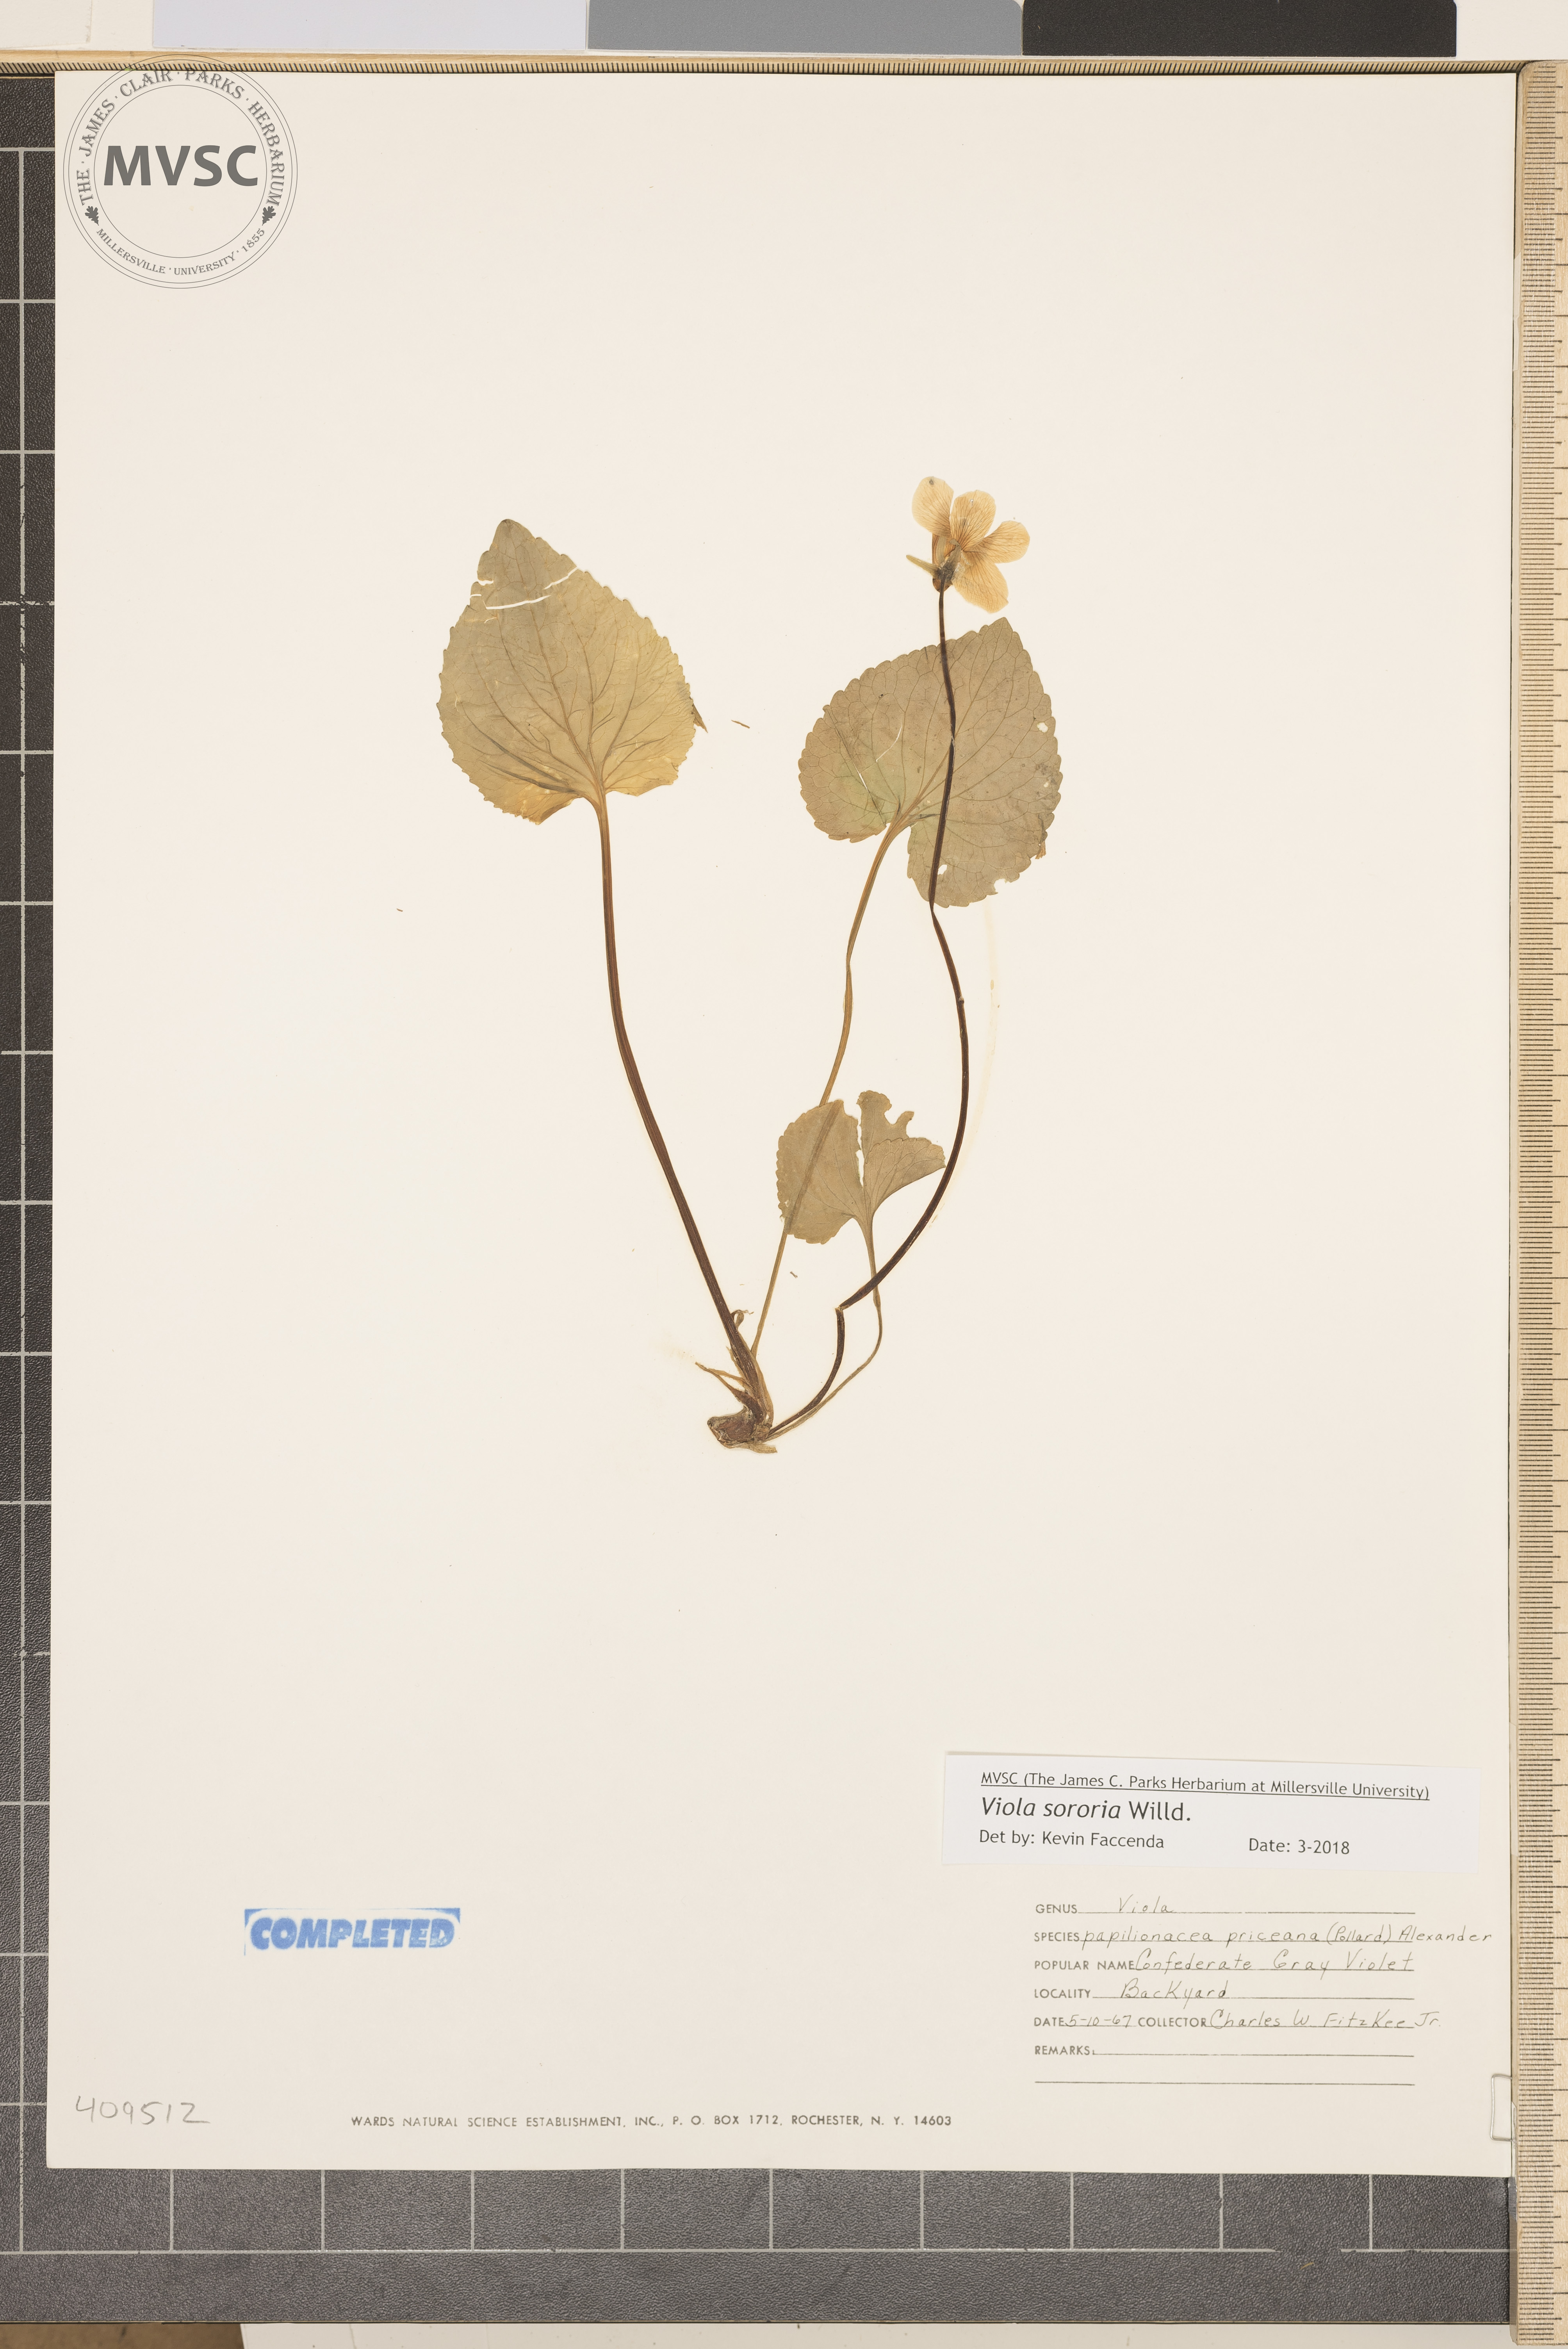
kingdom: Plantae
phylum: Tracheophyta
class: Magnoliopsida
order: Malpighiales
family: Violaceae
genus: Viola
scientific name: Viola sororia
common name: Dooryard violet
